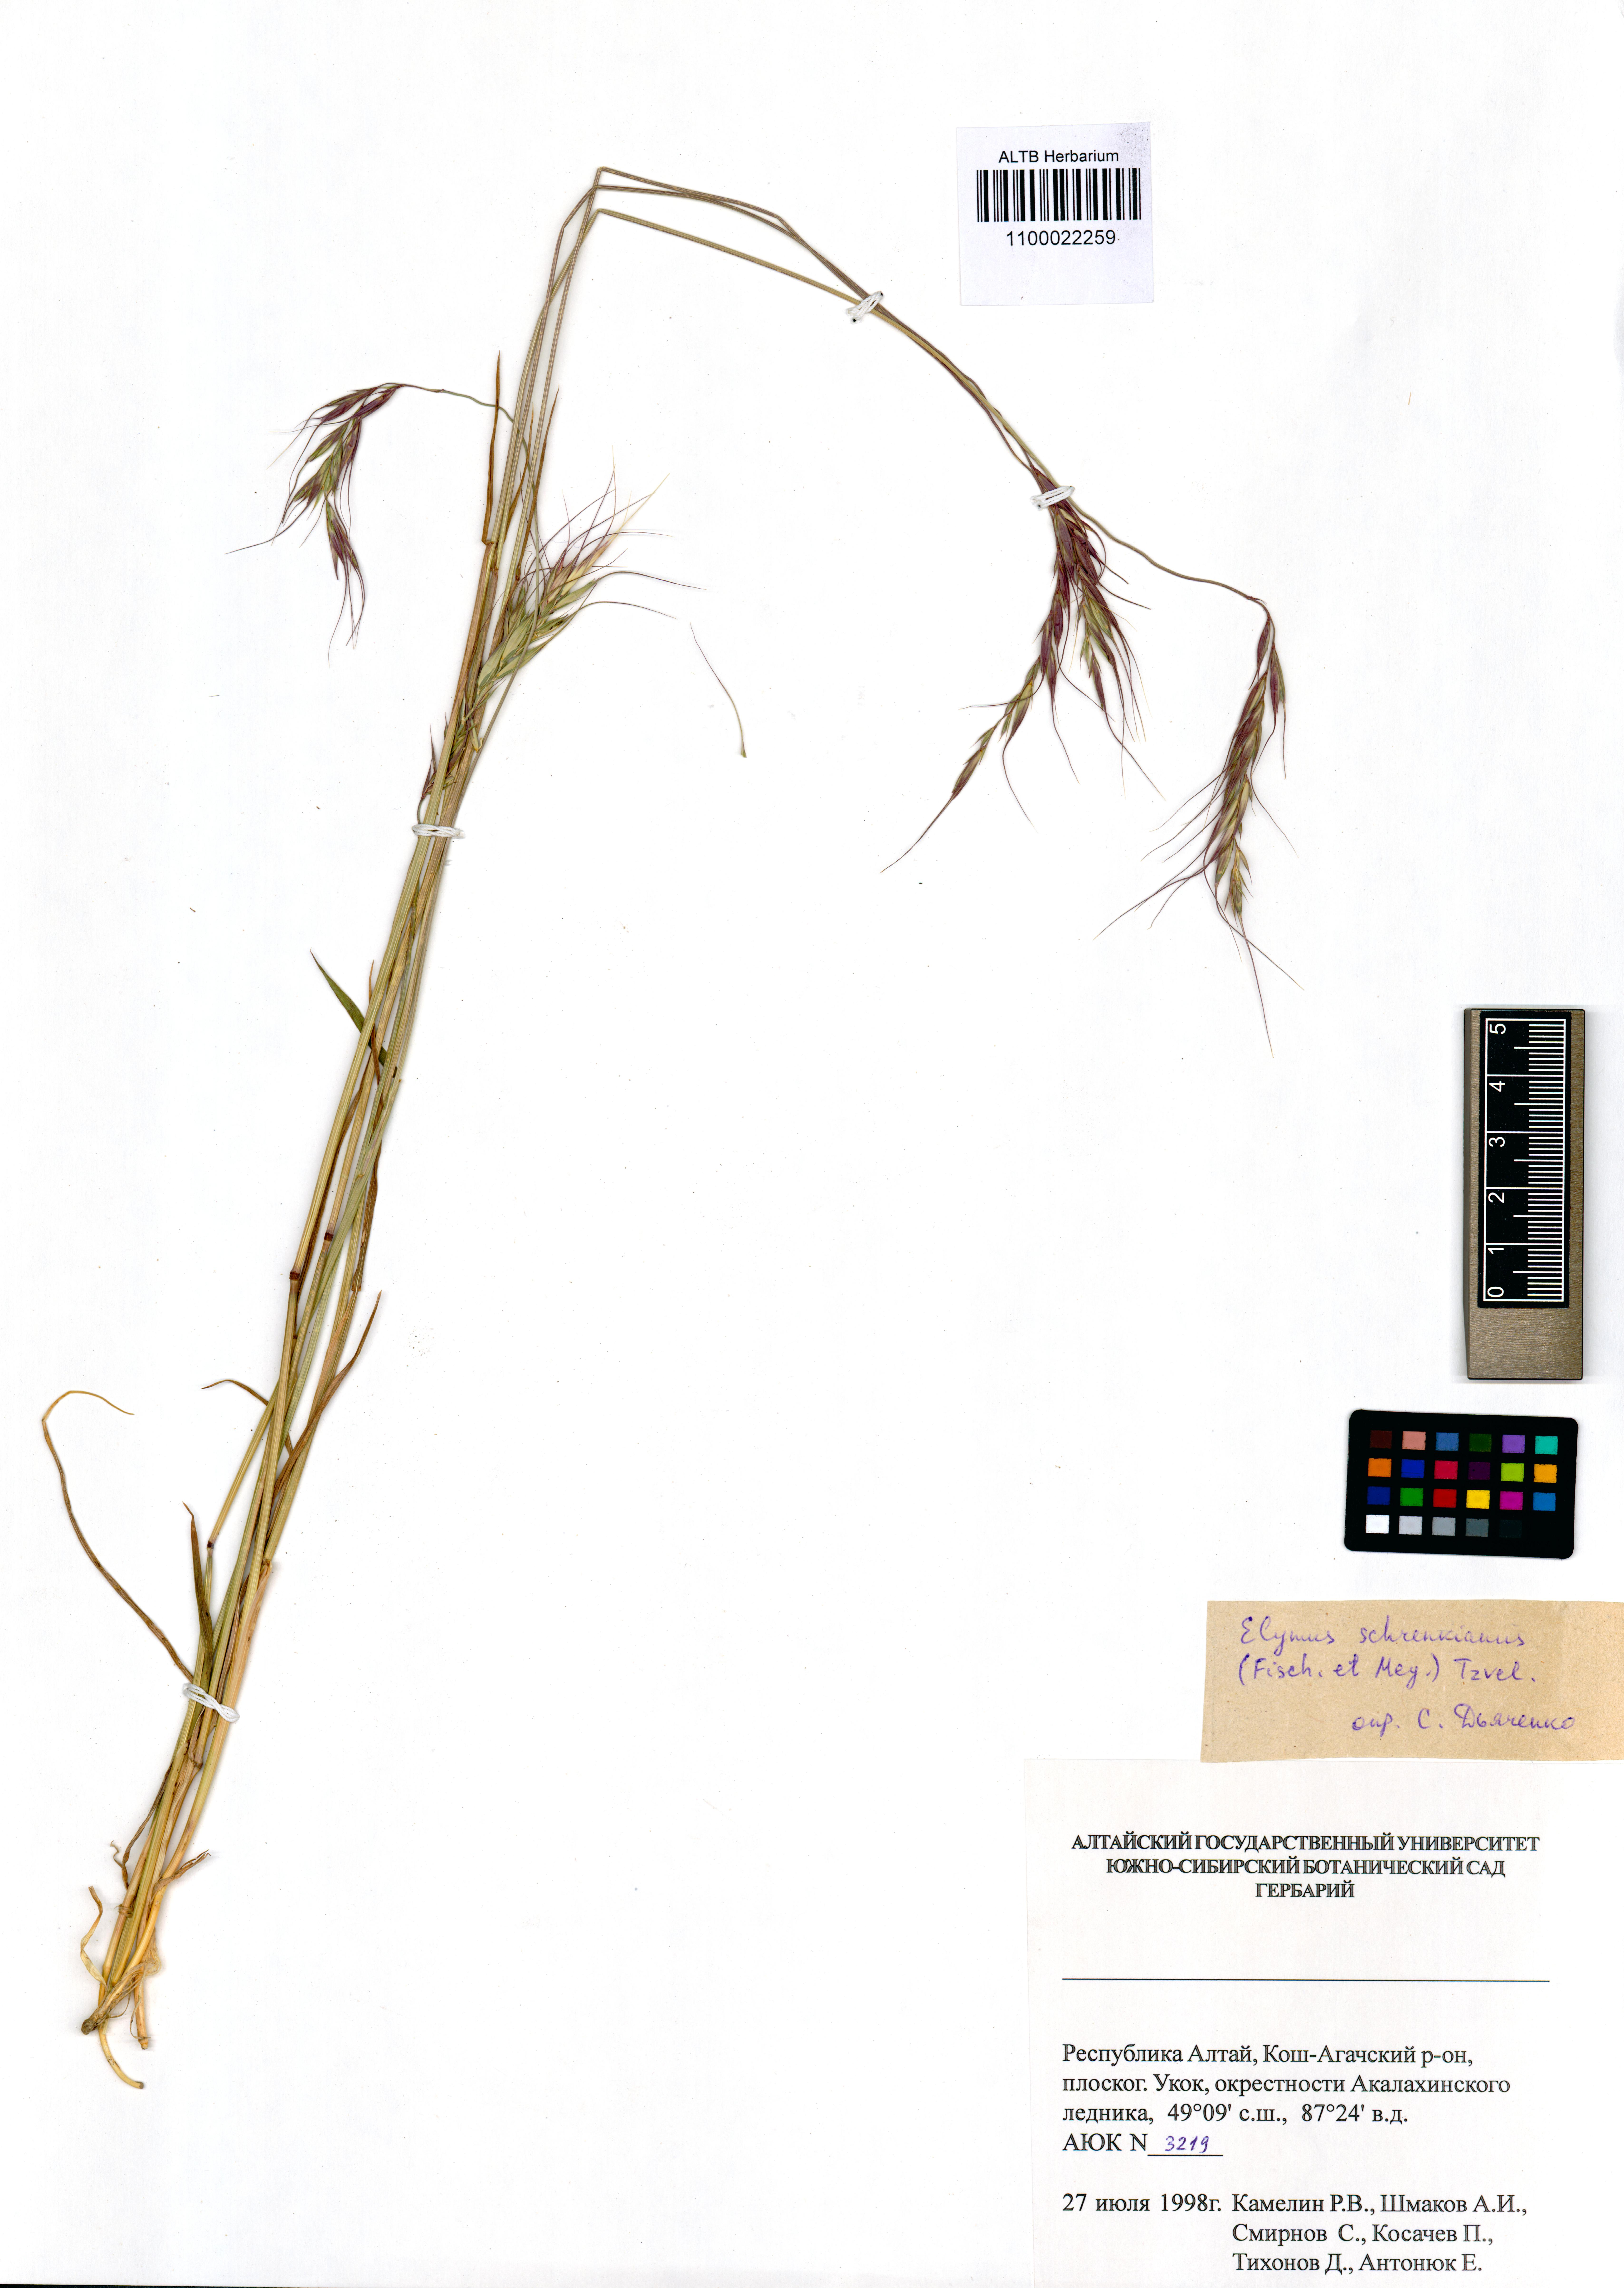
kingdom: Plantae
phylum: Tracheophyta
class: Liliopsida
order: Poales
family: Poaceae
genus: Campeiostachys
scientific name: Campeiostachys schrenkiana
